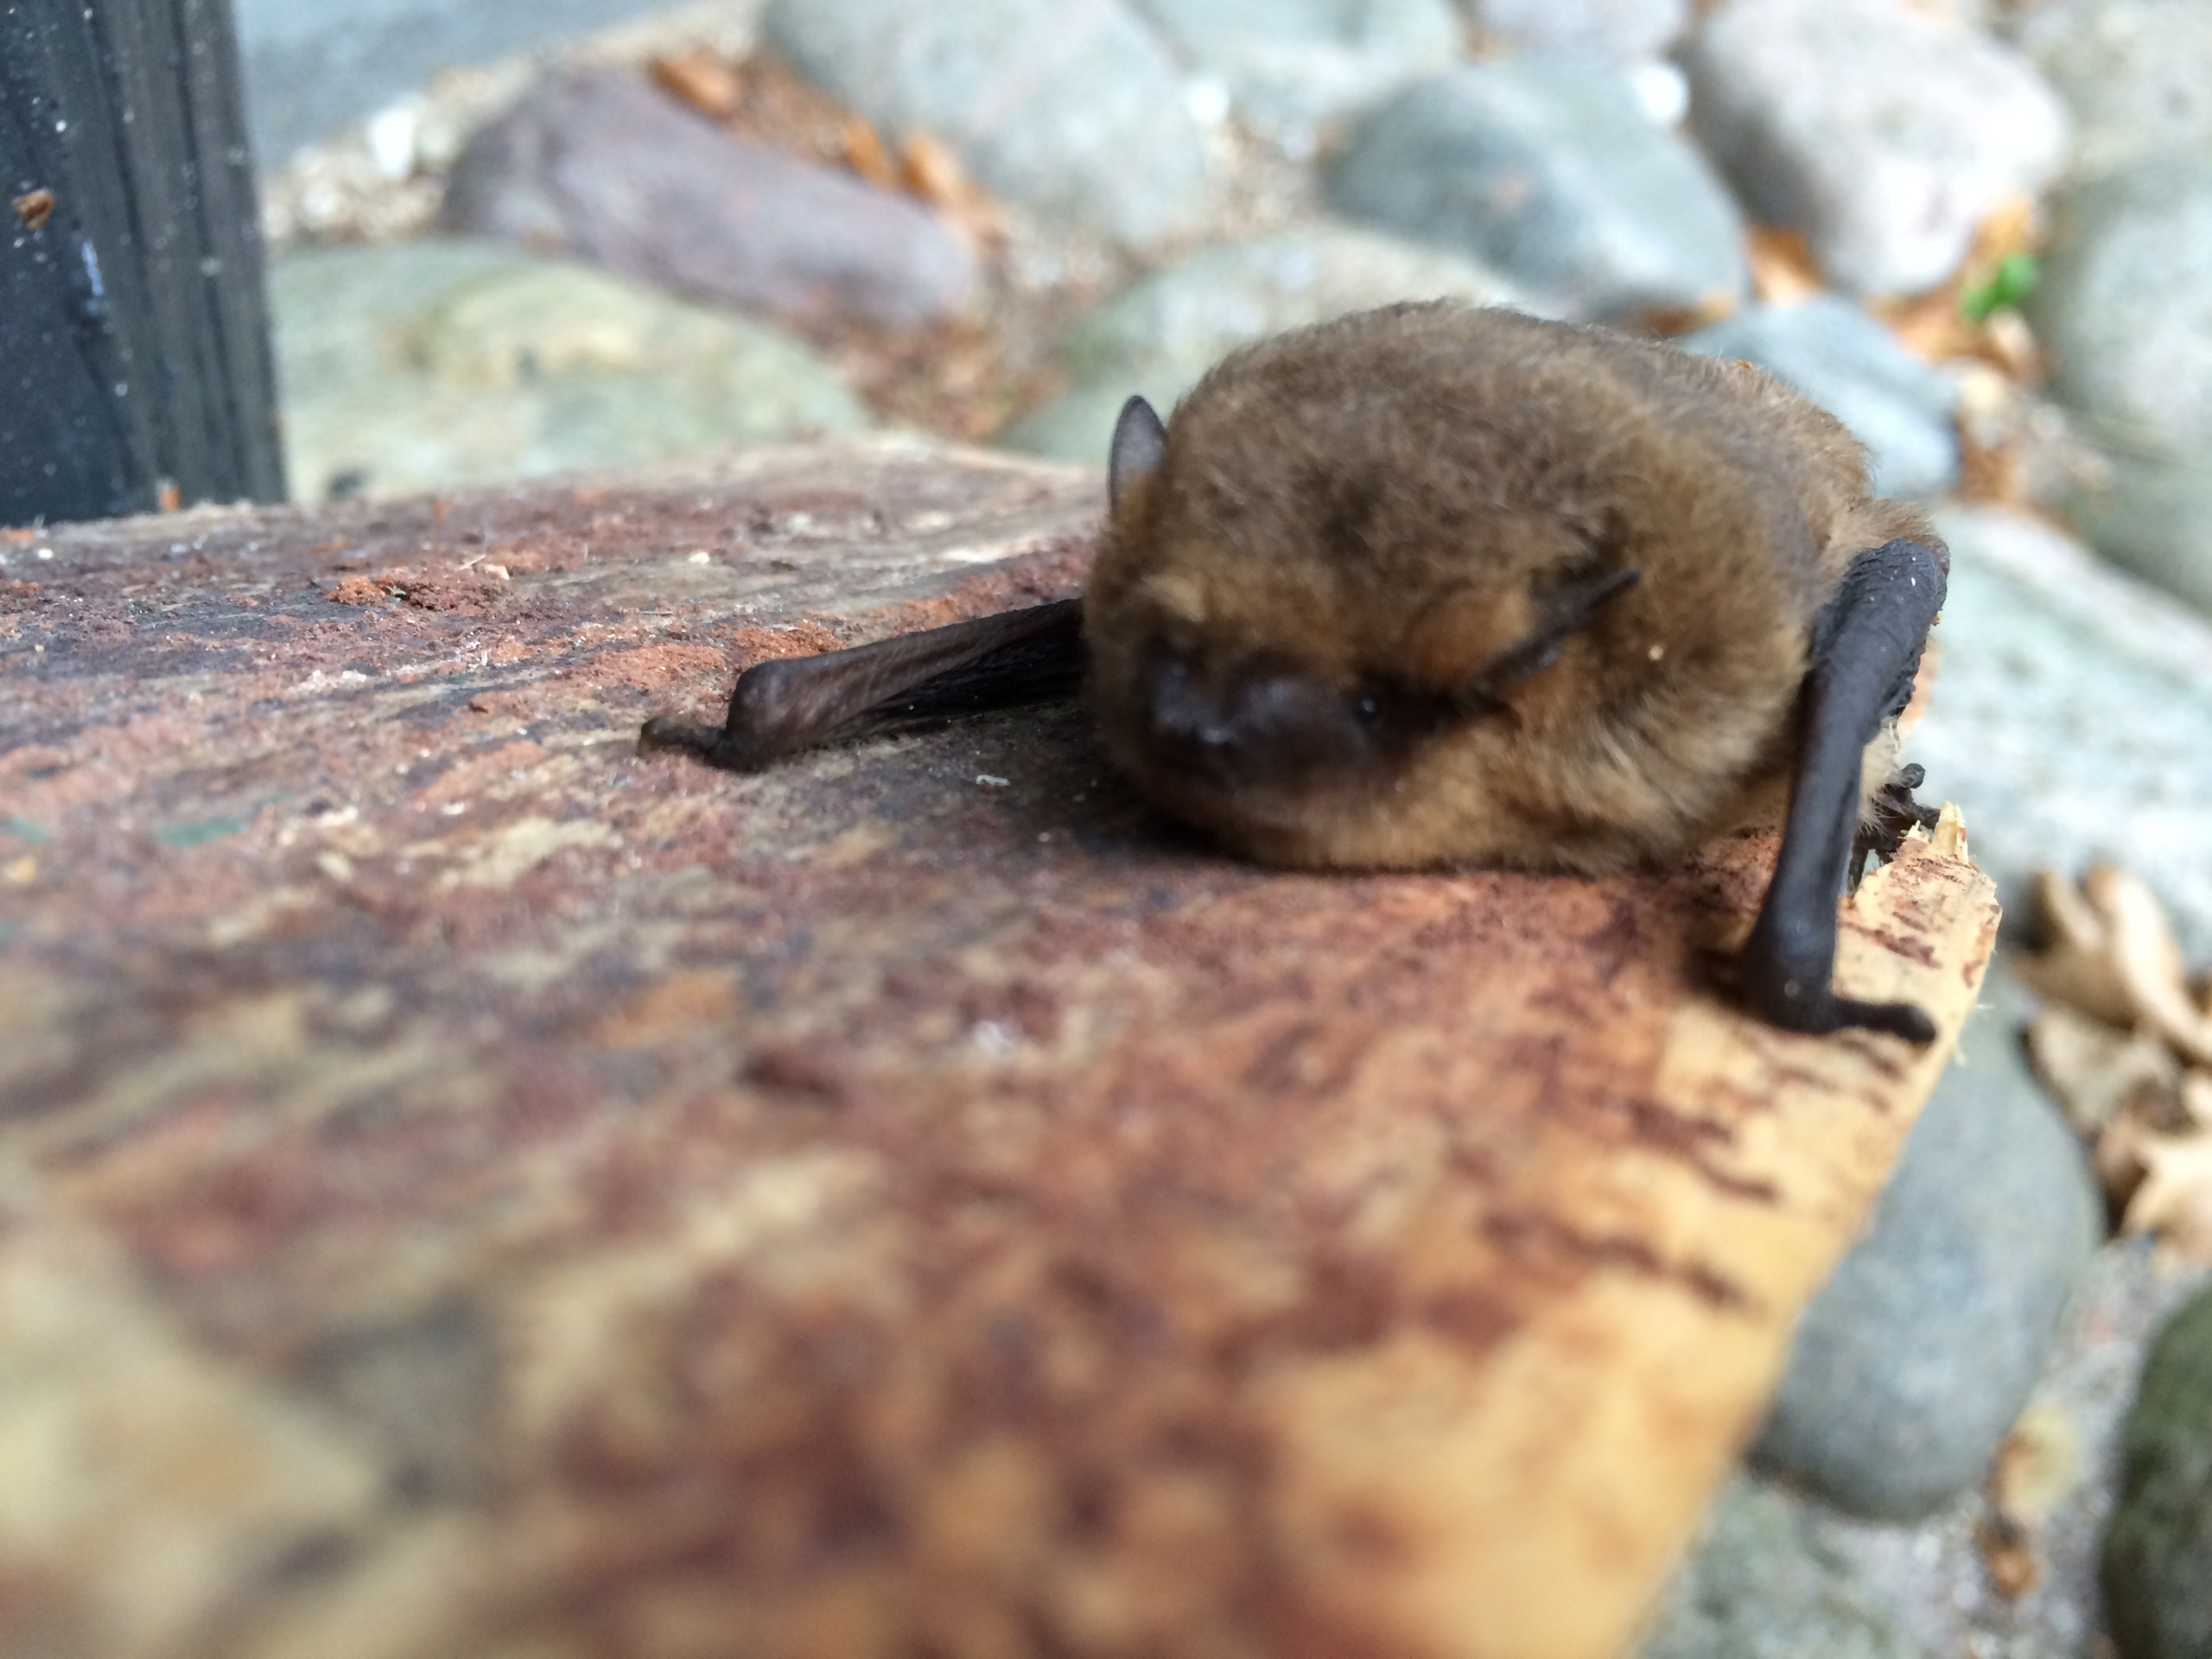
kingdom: Animalia
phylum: Chordata
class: Mammalia
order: Chiroptera
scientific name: Chiroptera
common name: Flagermus
